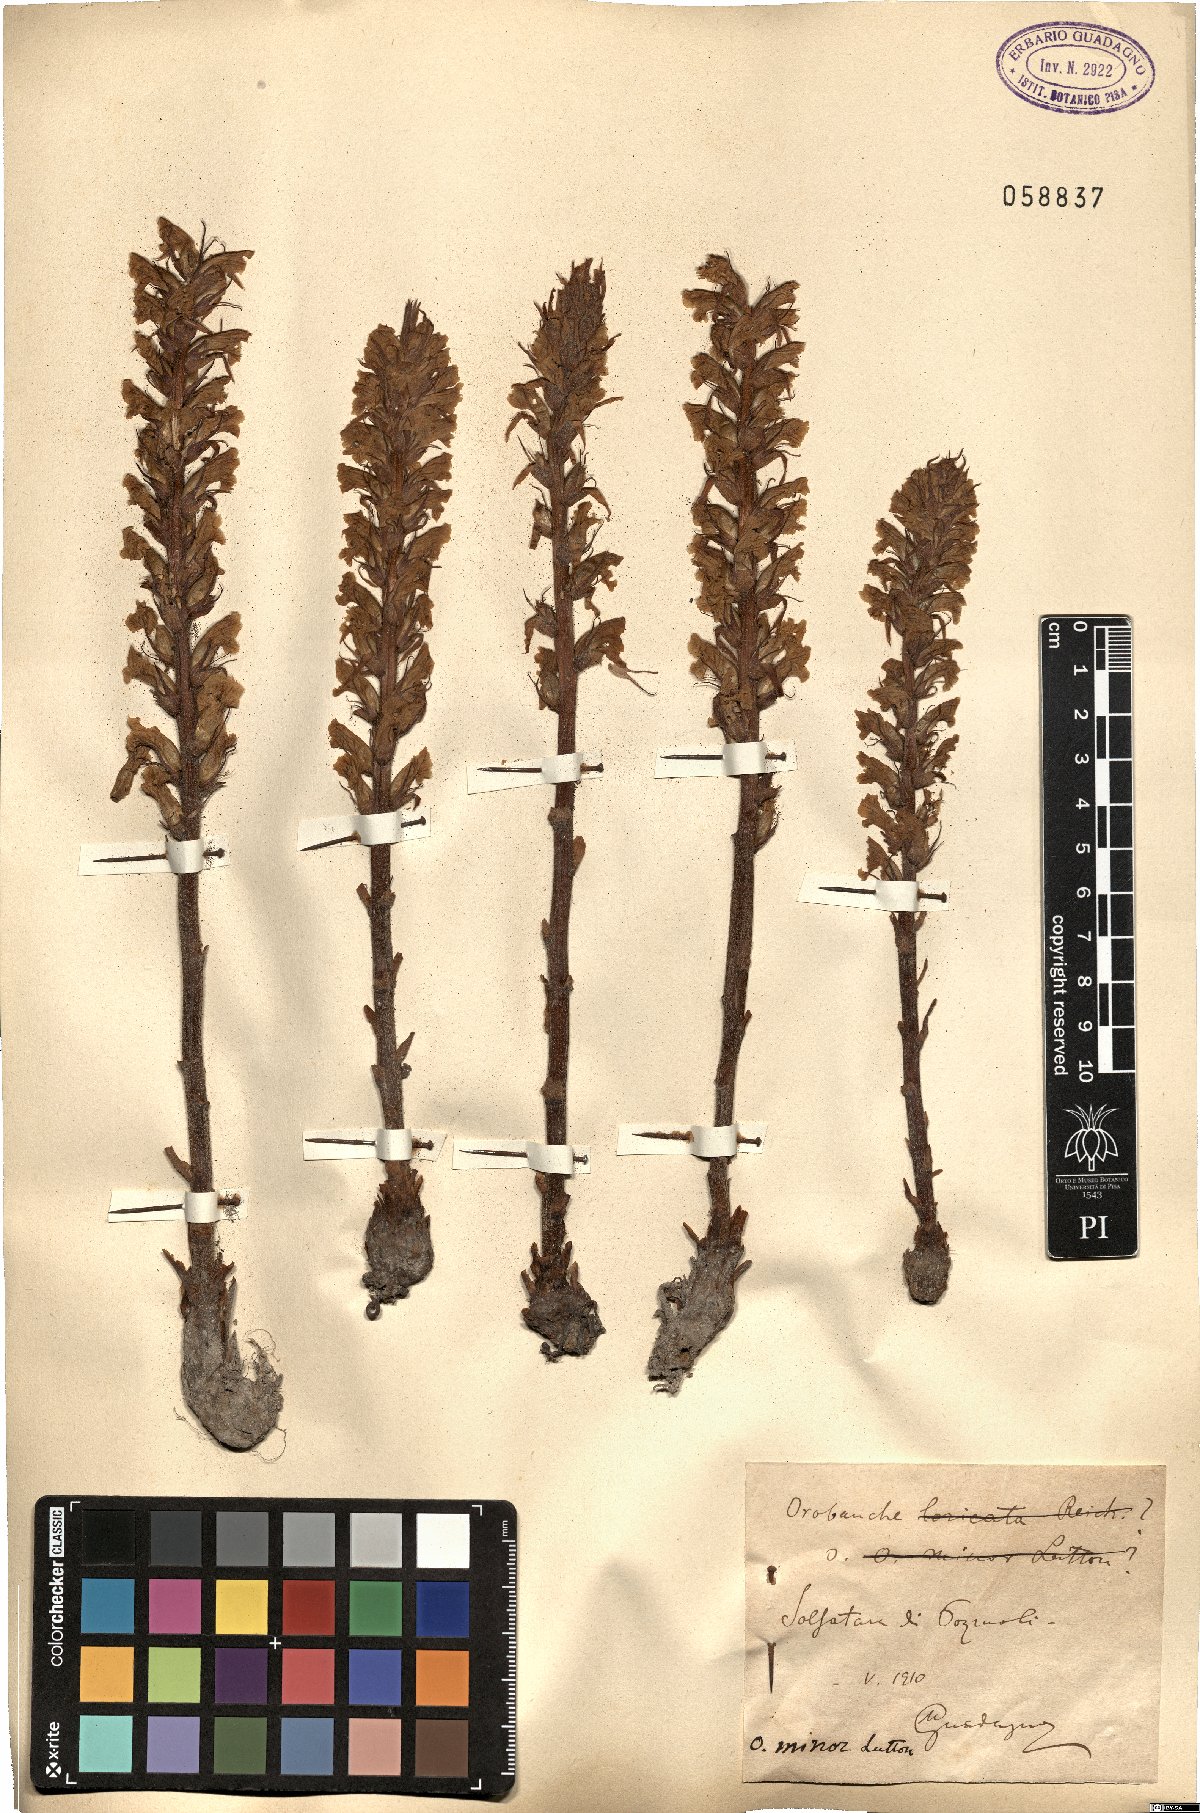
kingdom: Plantae
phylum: Tracheophyta
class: Magnoliopsida
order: Lamiales
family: Orobanchaceae
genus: Orobanche
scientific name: Orobanche minor
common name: Common broomrape
